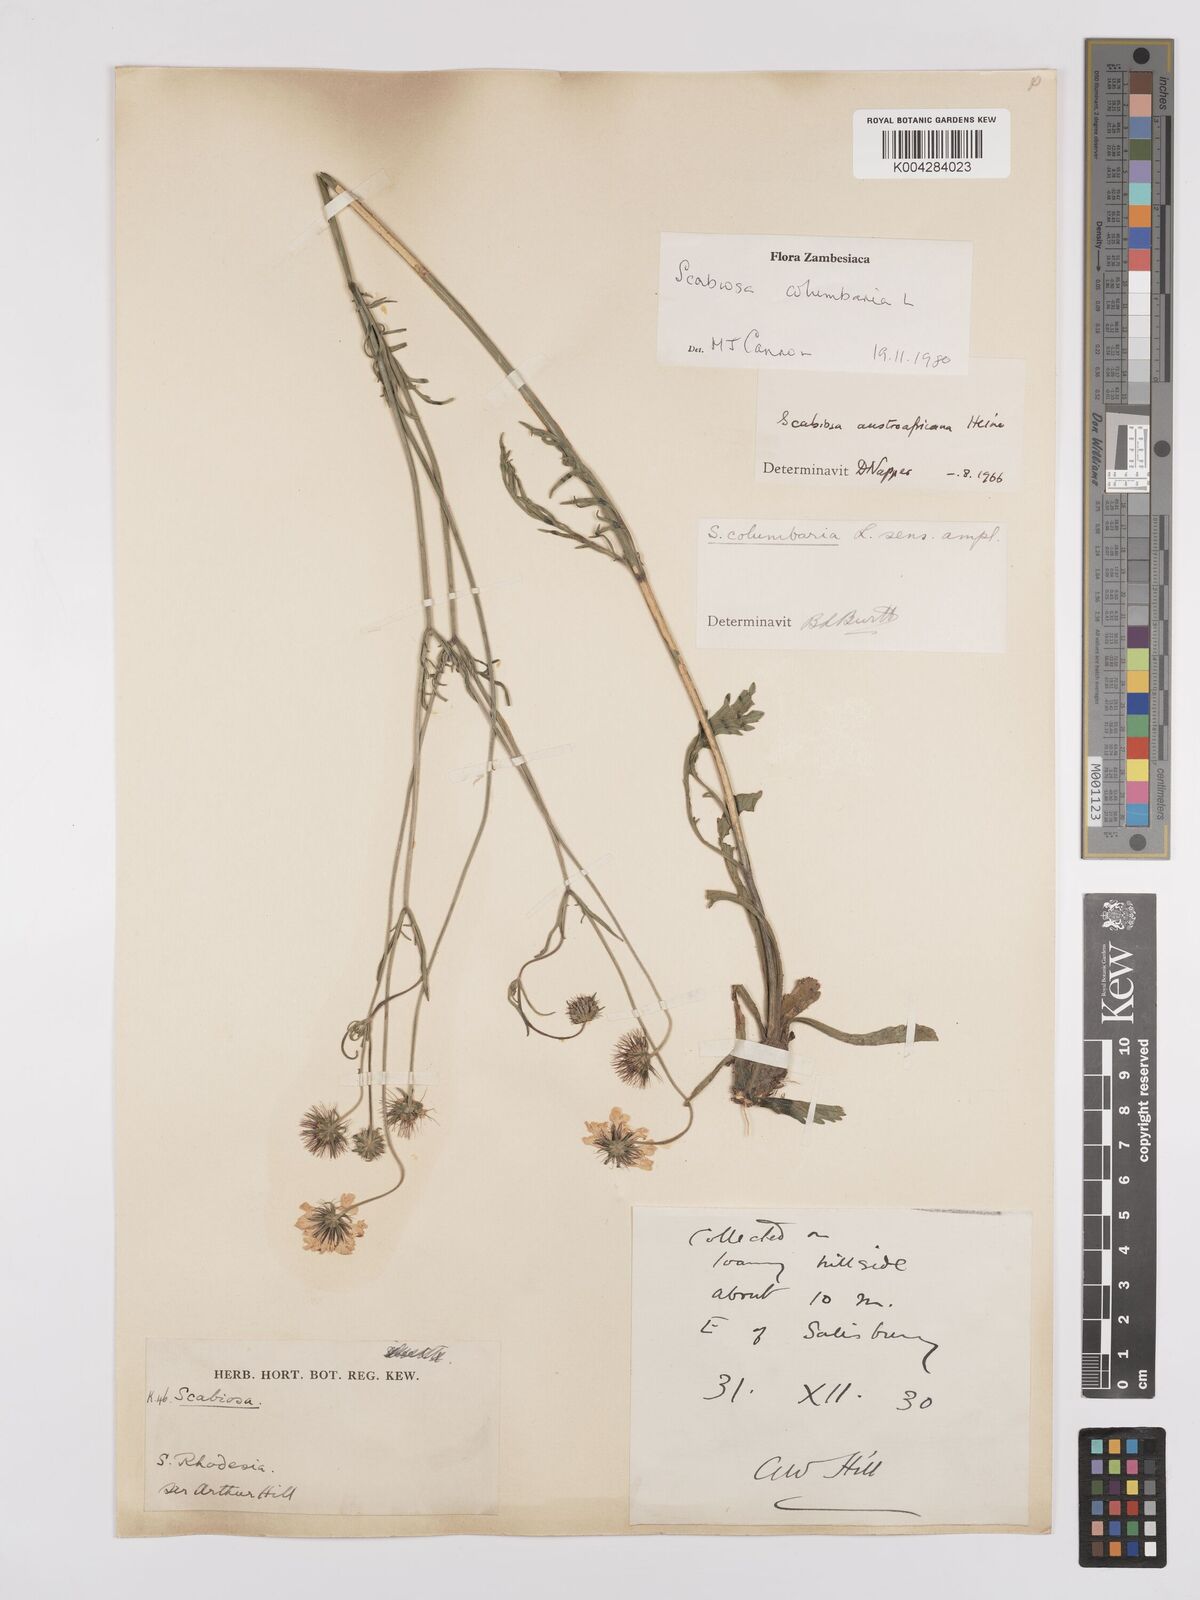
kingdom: Plantae
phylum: Tracheophyta
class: Magnoliopsida
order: Dipsacales
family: Caprifoliaceae
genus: Scabiosa
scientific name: Scabiosa austroafricana
